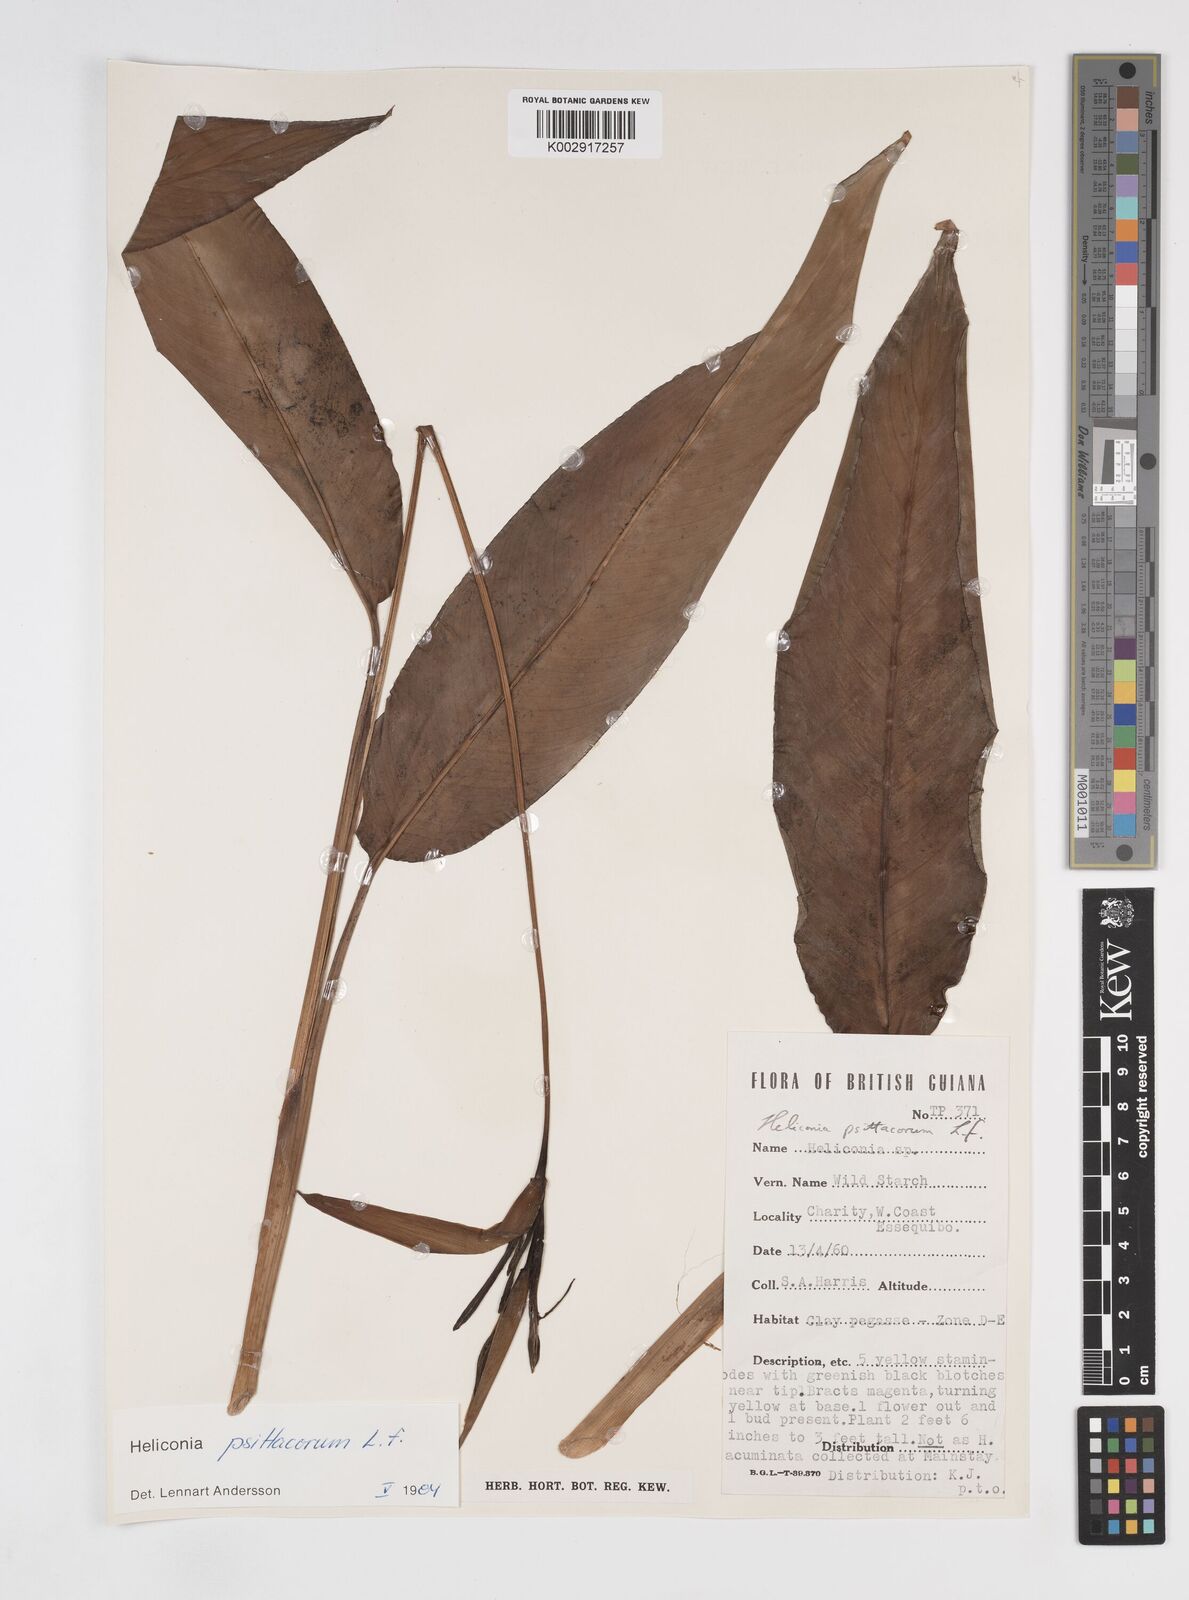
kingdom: Plantae
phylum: Tracheophyta
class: Liliopsida
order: Zingiberales
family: Heliconiaceae
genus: Heliconia
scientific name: Heliconia psittacorum
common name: Parrot's-flower
